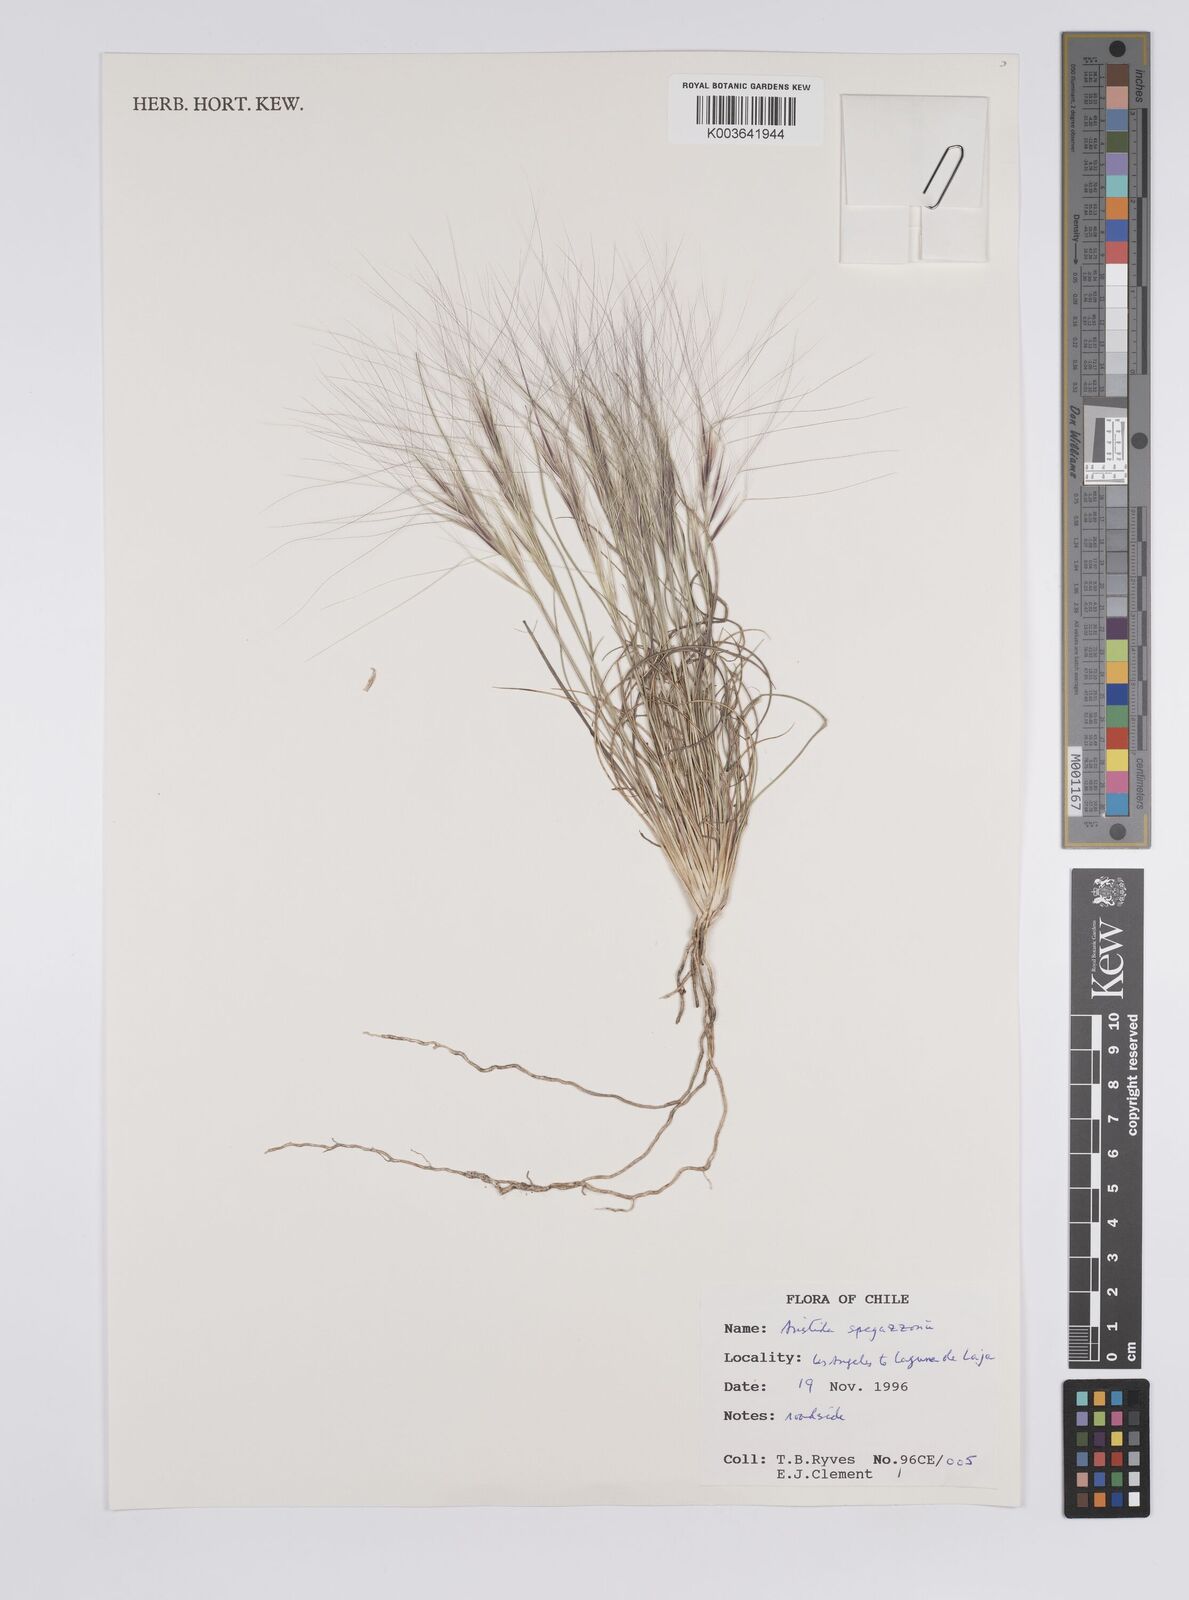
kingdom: Plantae
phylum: Tracheophyta
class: Liliopsida
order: Poales
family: Poaceae
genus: Aristida
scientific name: Aristida spegazzinii
